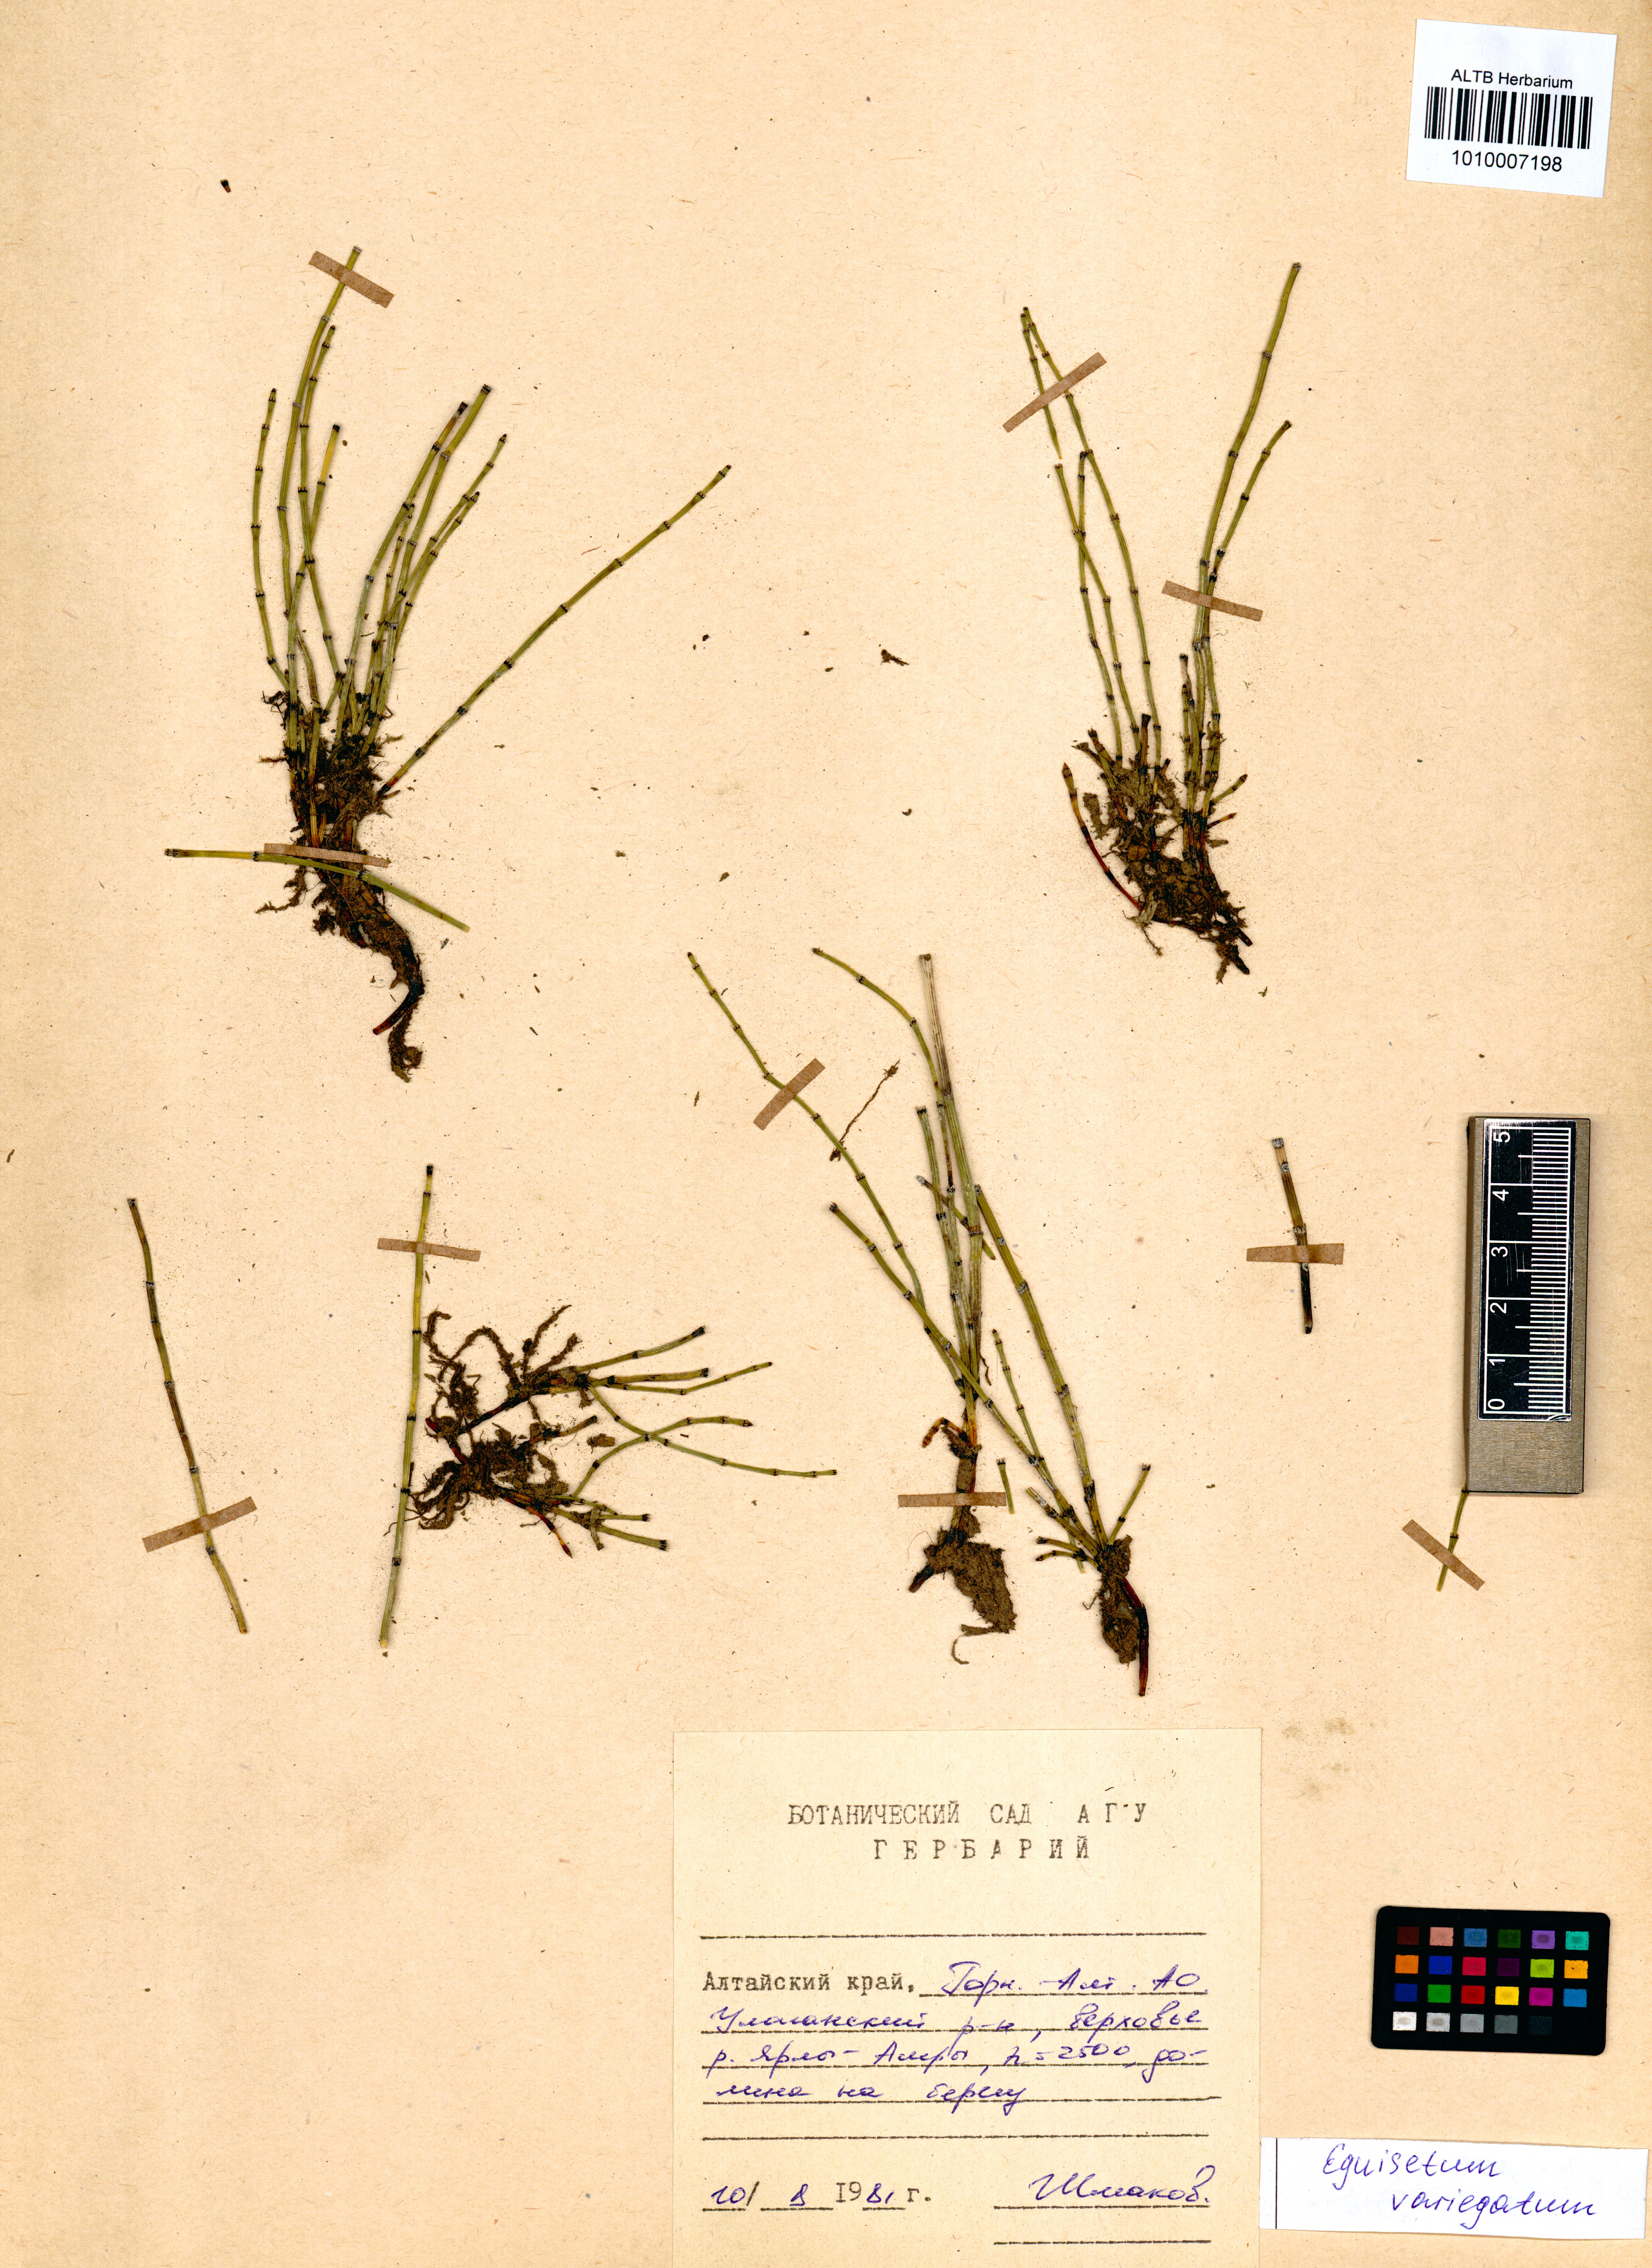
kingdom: Plantae
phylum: Tracheophyta
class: Polypodiopsida
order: Equisetales
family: Equisetaceae
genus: Equisetum
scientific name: Equisetum variegatum
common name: Variegated horsetail
